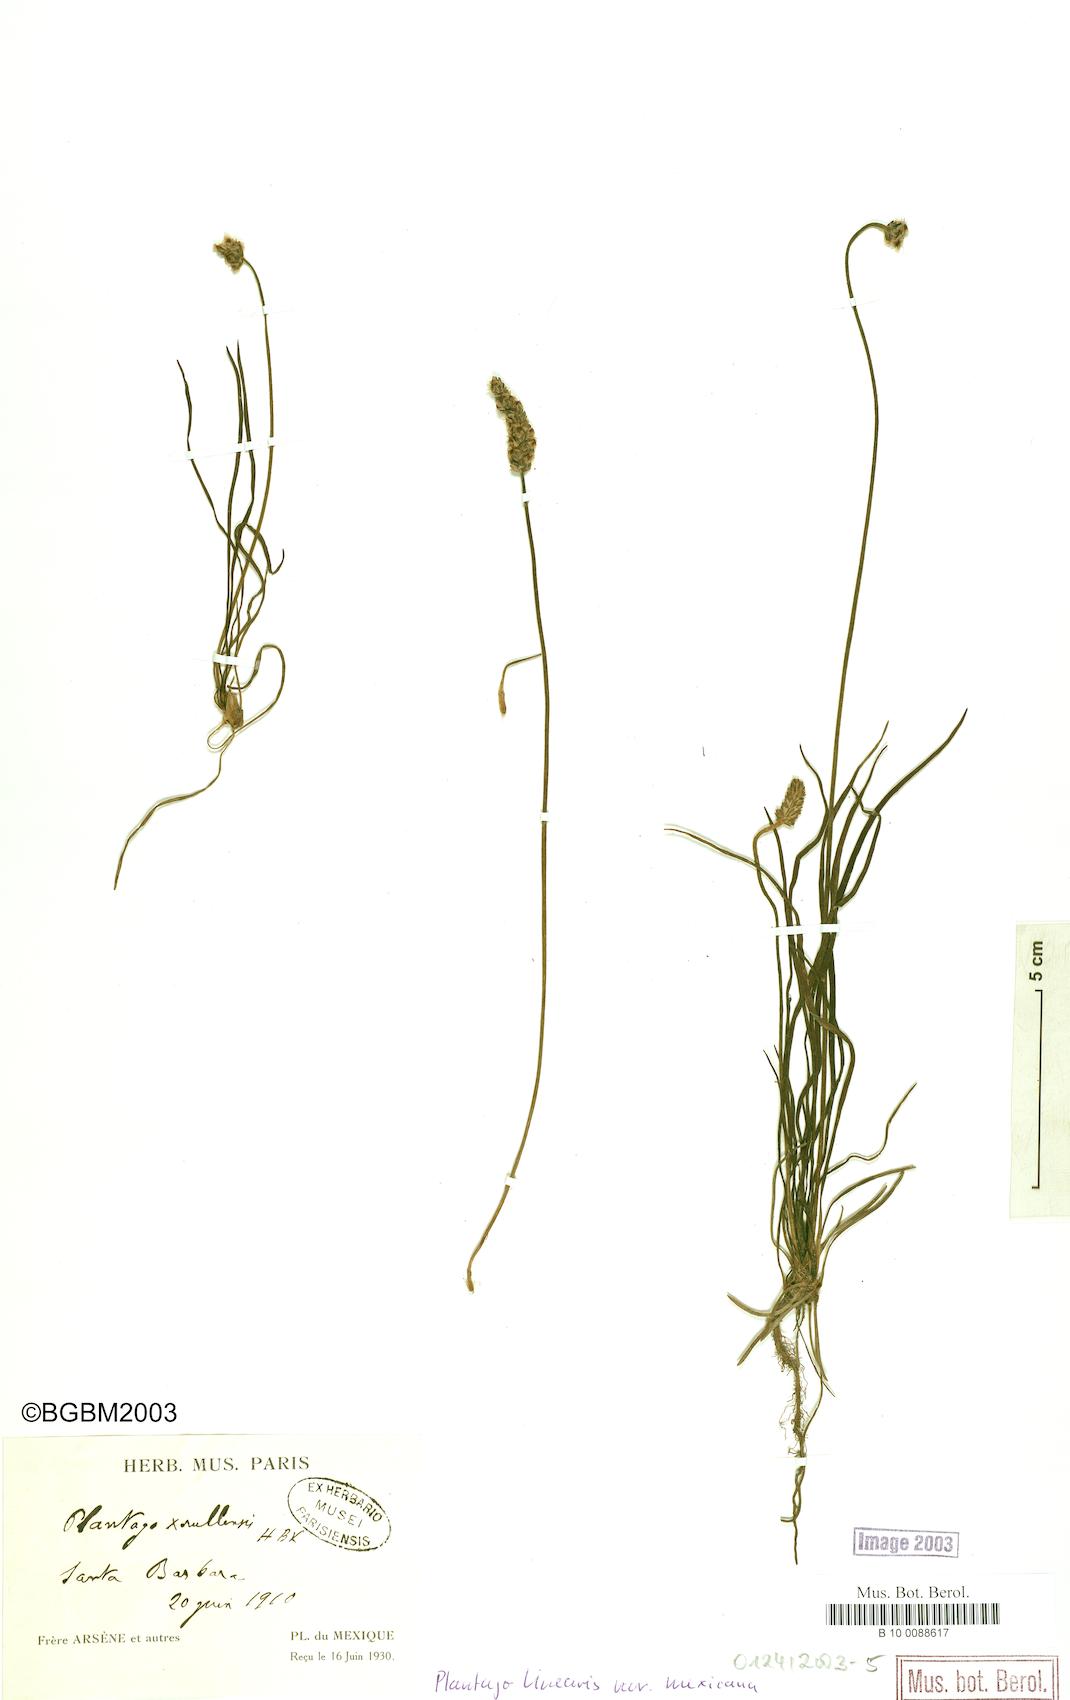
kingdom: Plantae
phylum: Tracheophyta
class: Magnoliopsida
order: Lamiales
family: Plantaginaceae
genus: Plantago
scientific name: Plantago nivea
